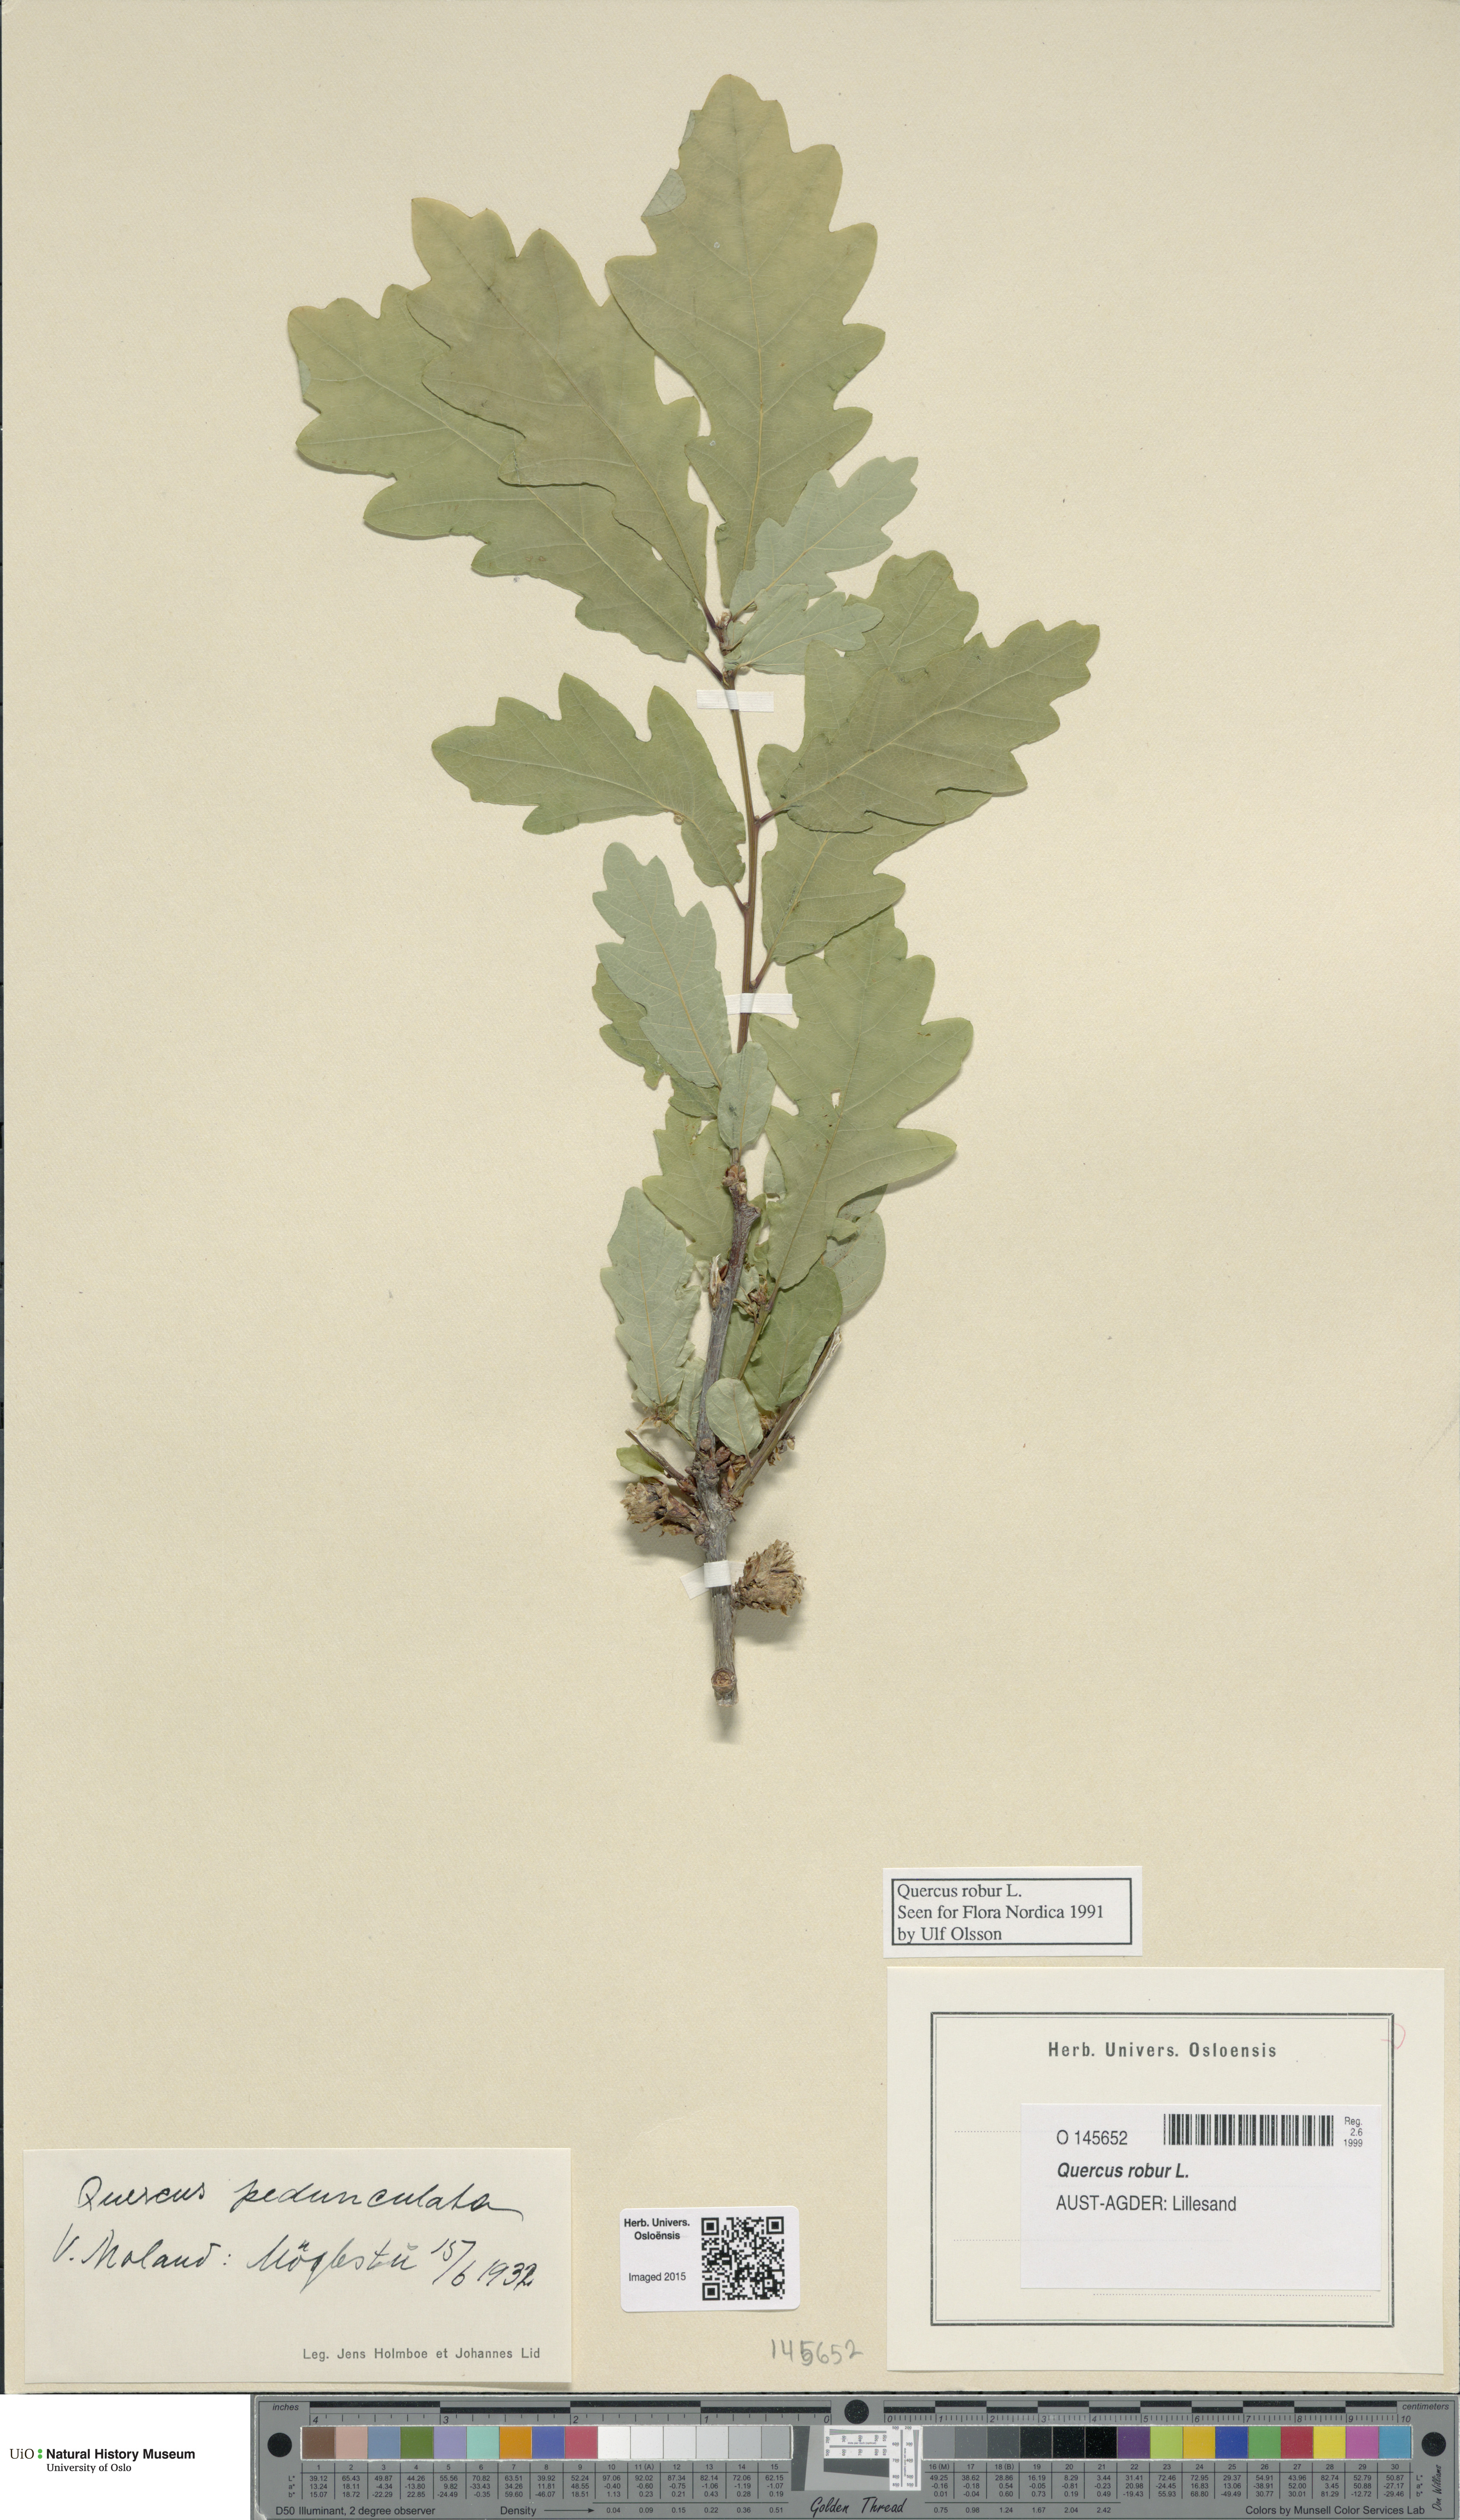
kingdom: Plantae
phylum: Tracheophyta
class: Magnoliopsida
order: Fagales
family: Fagaceae
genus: Quercus
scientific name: Quercus robur
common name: Pedunculate oak
